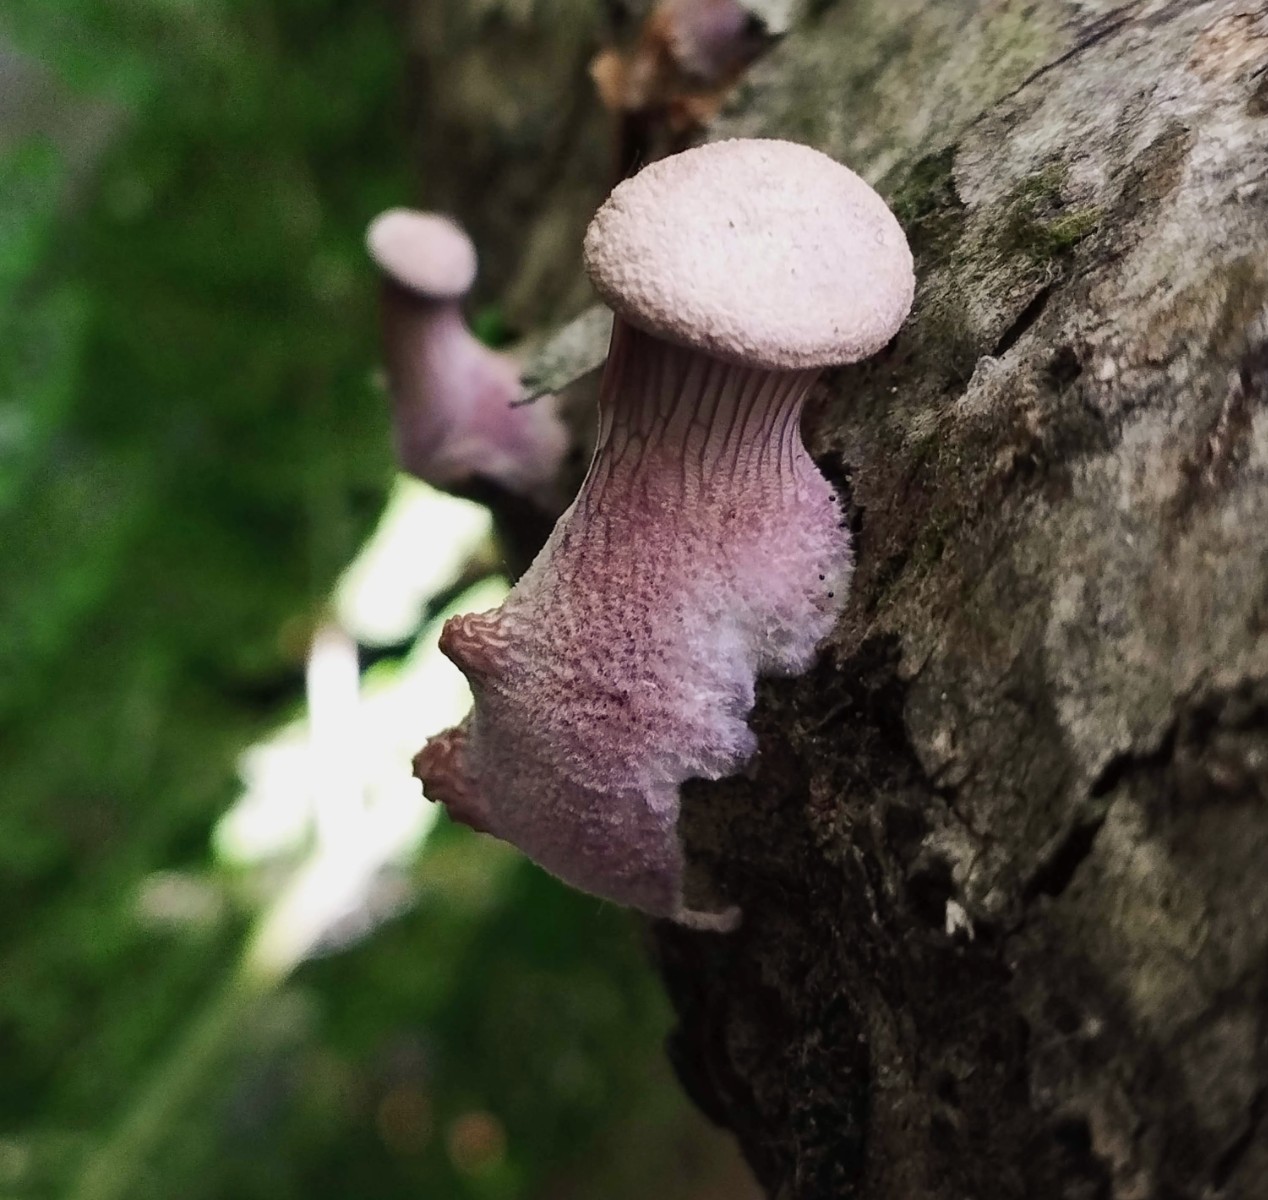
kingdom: Fungi
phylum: Basidiomycota
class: Agaricomycetes
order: Polyporales
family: Panaceae
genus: Panus
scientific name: Panus conchatus
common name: filtstokket læderhat
